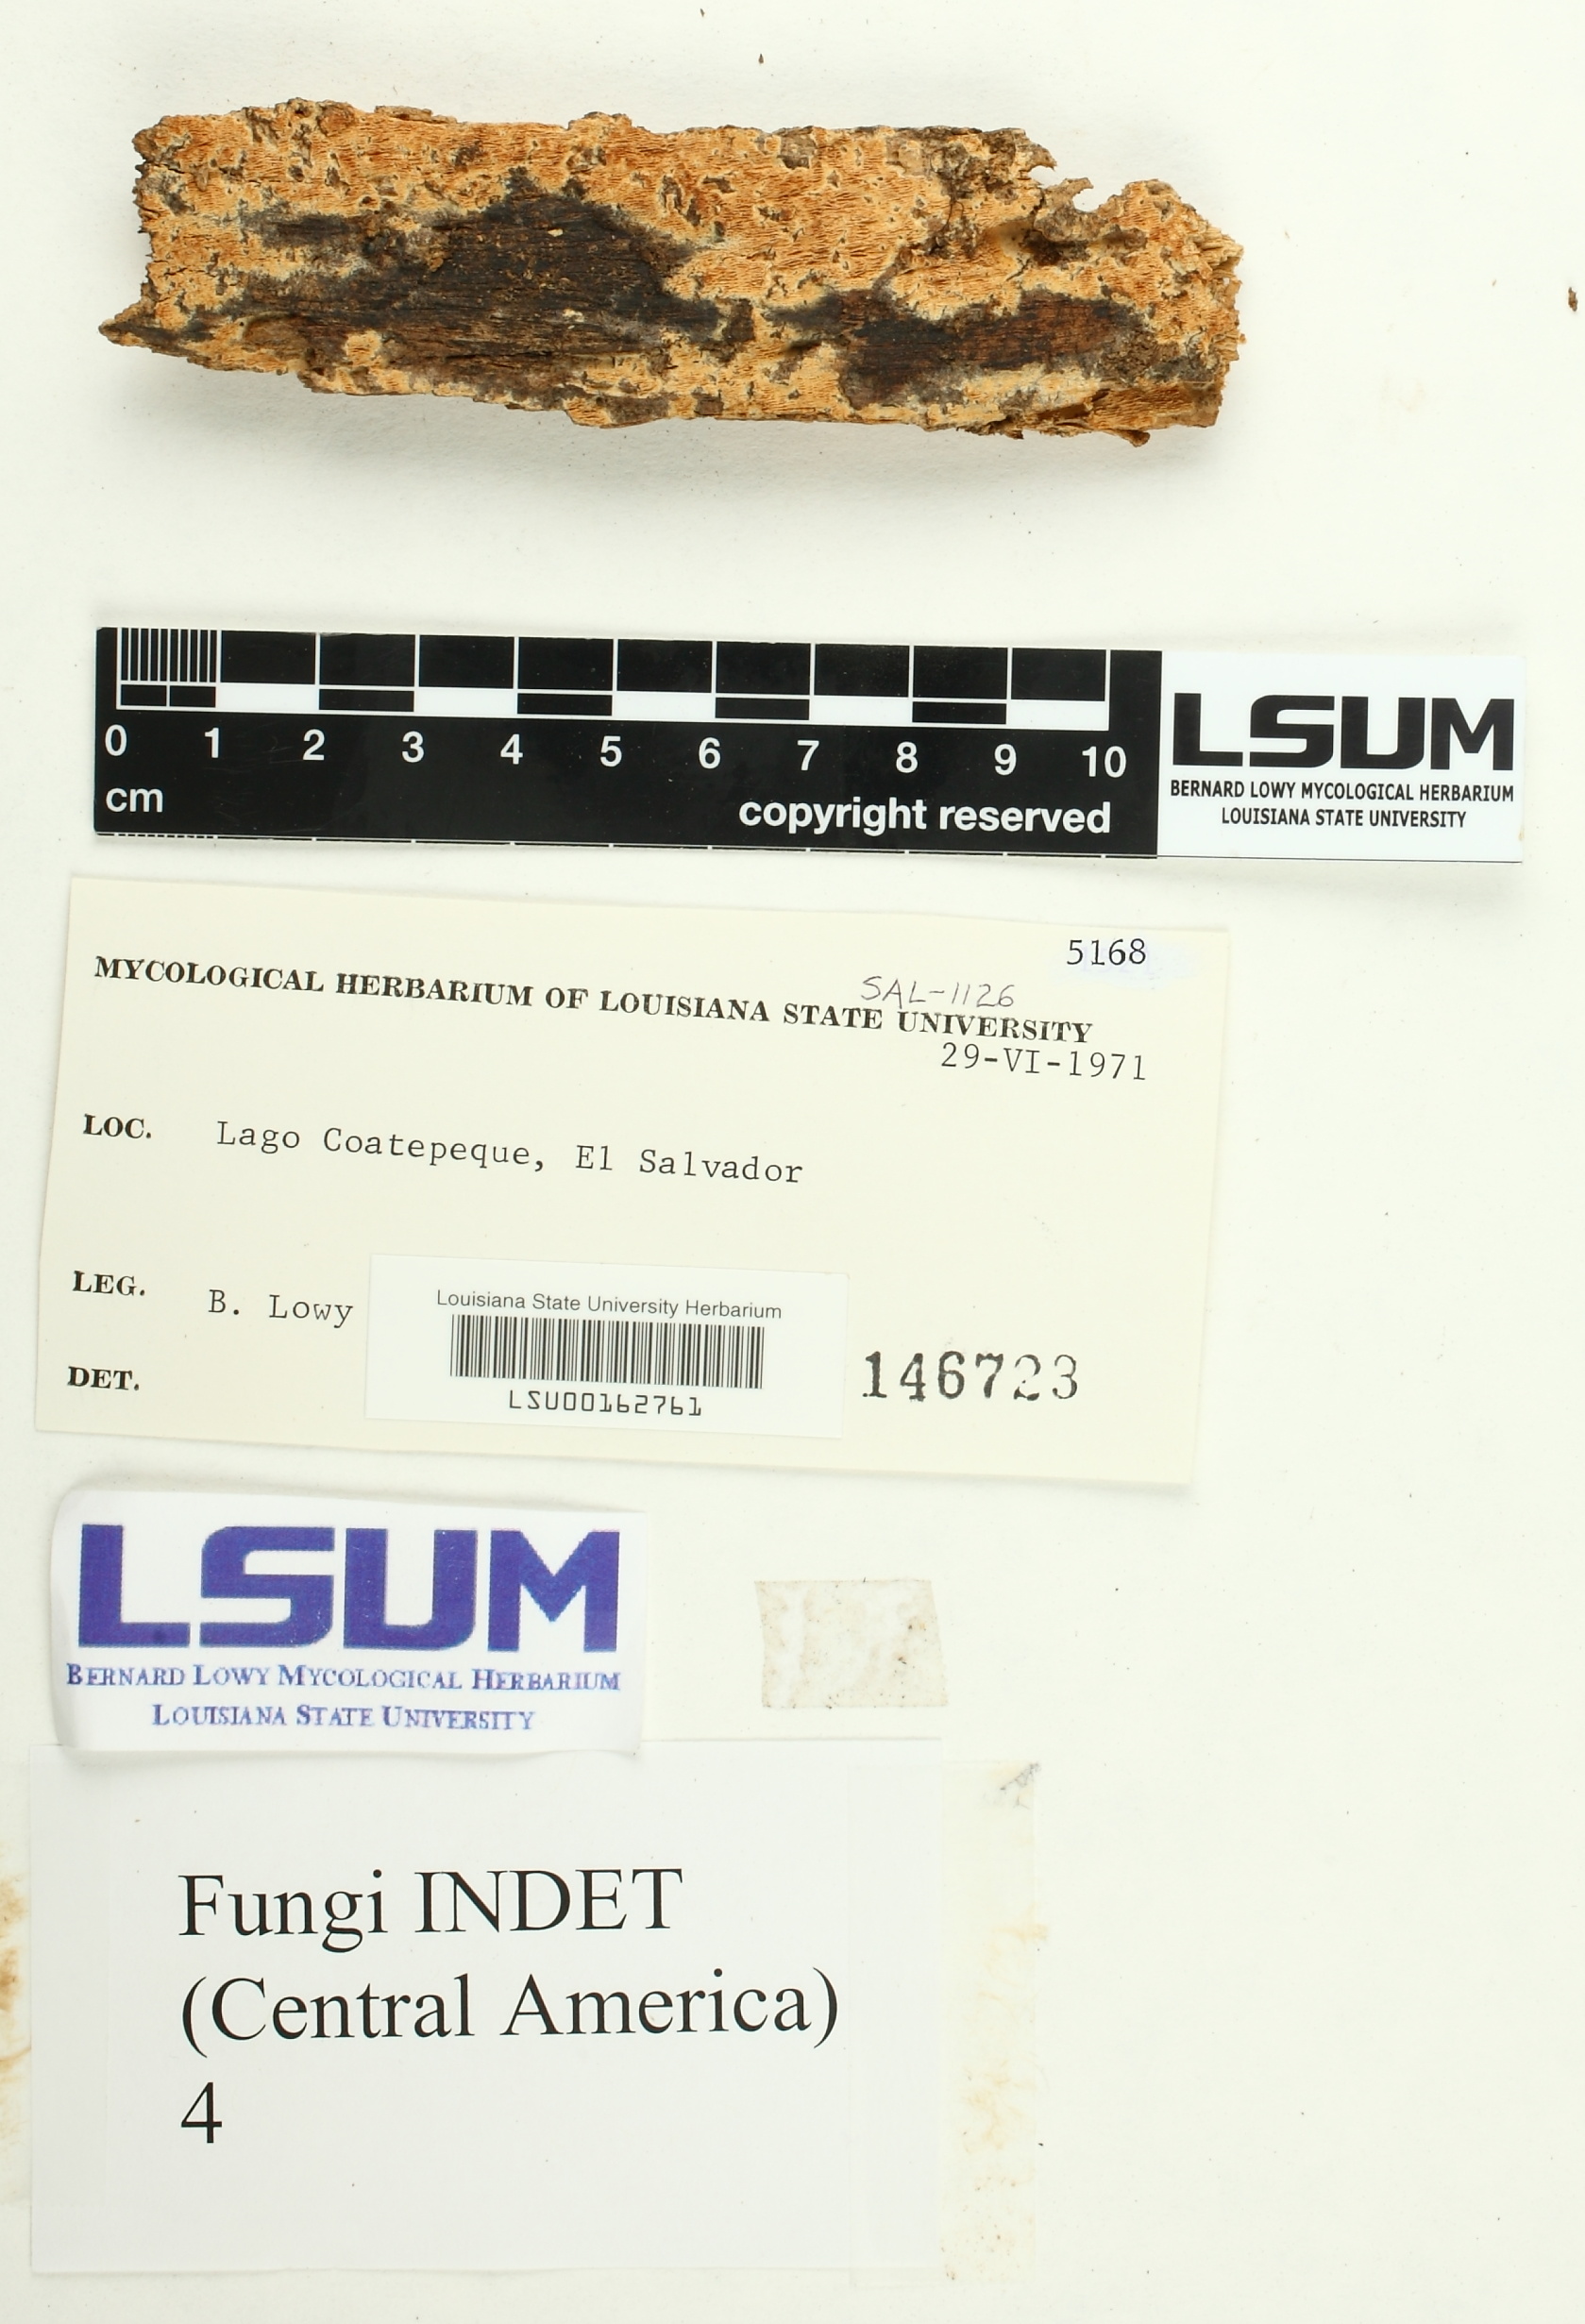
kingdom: Fungi
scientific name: Fungi
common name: Fungi
